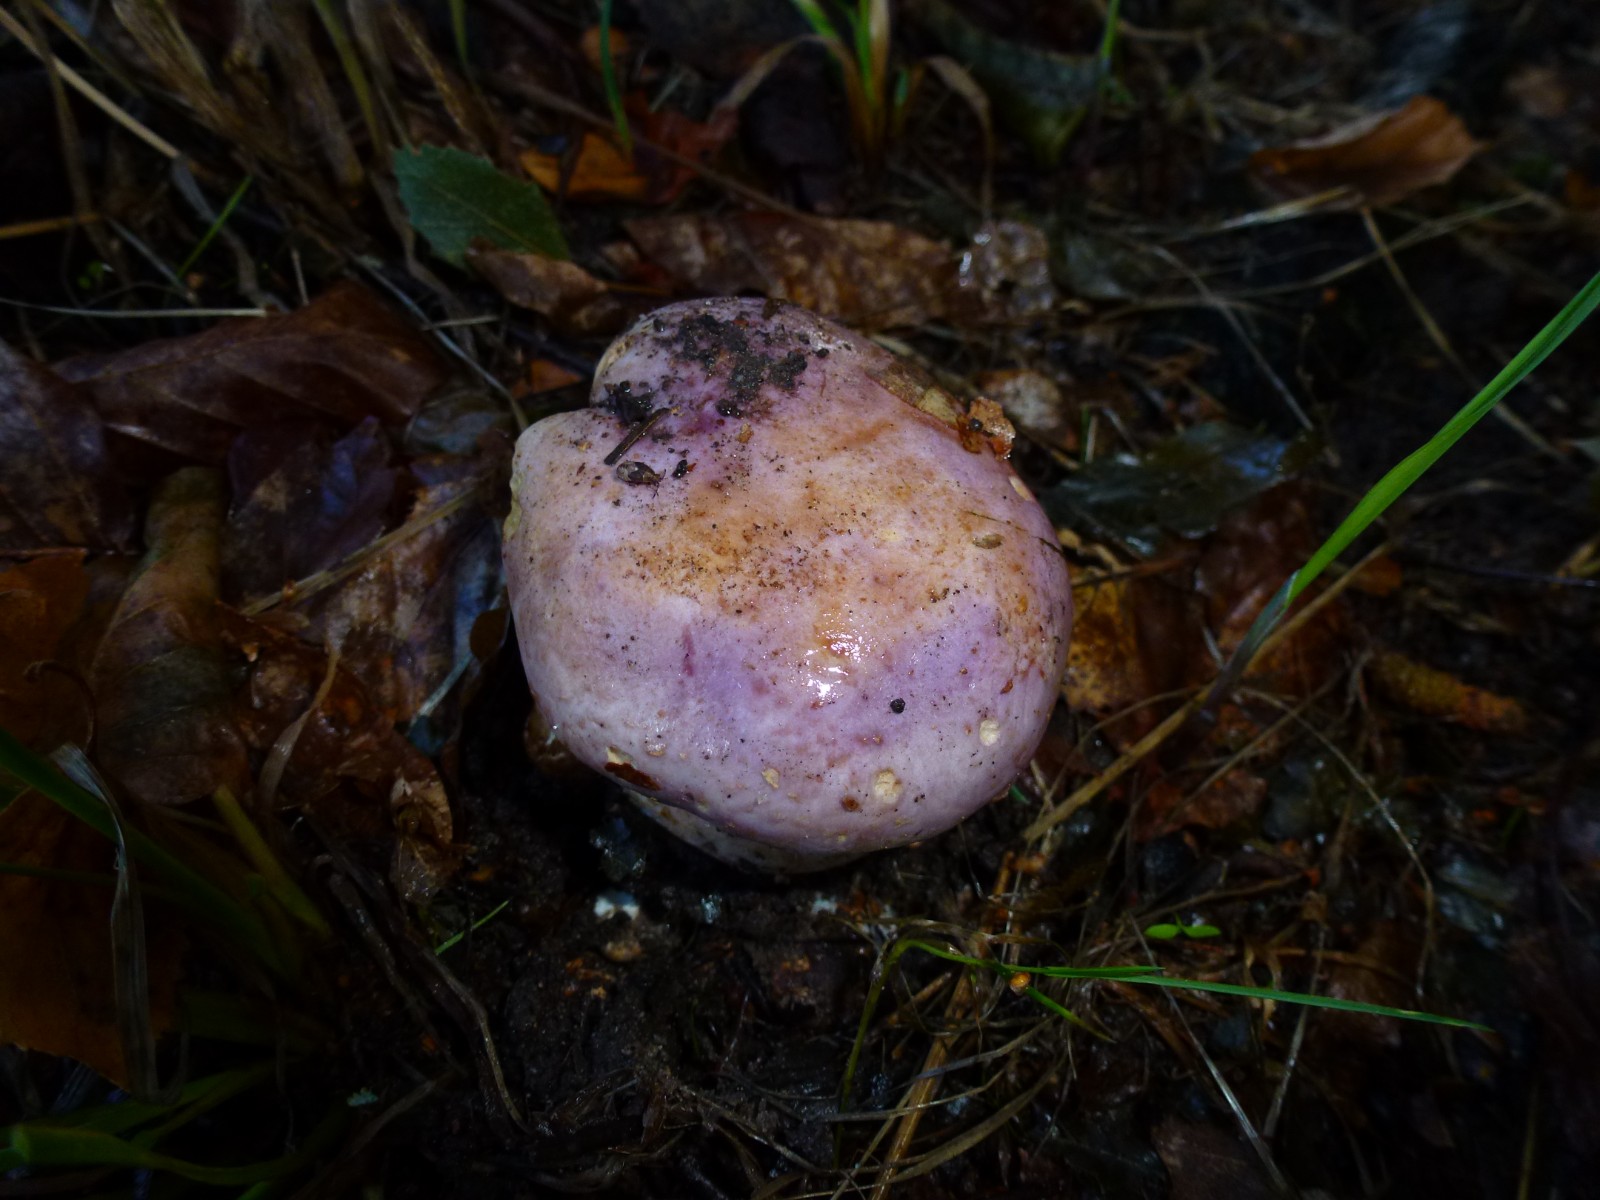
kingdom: Fungi
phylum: Basidiomycota
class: Agaricomycetes
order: Agaricales
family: Cortinariaceae
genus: Phlegmacium
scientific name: Phlegmacium balteatocumatile
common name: violettrådet slørhat
